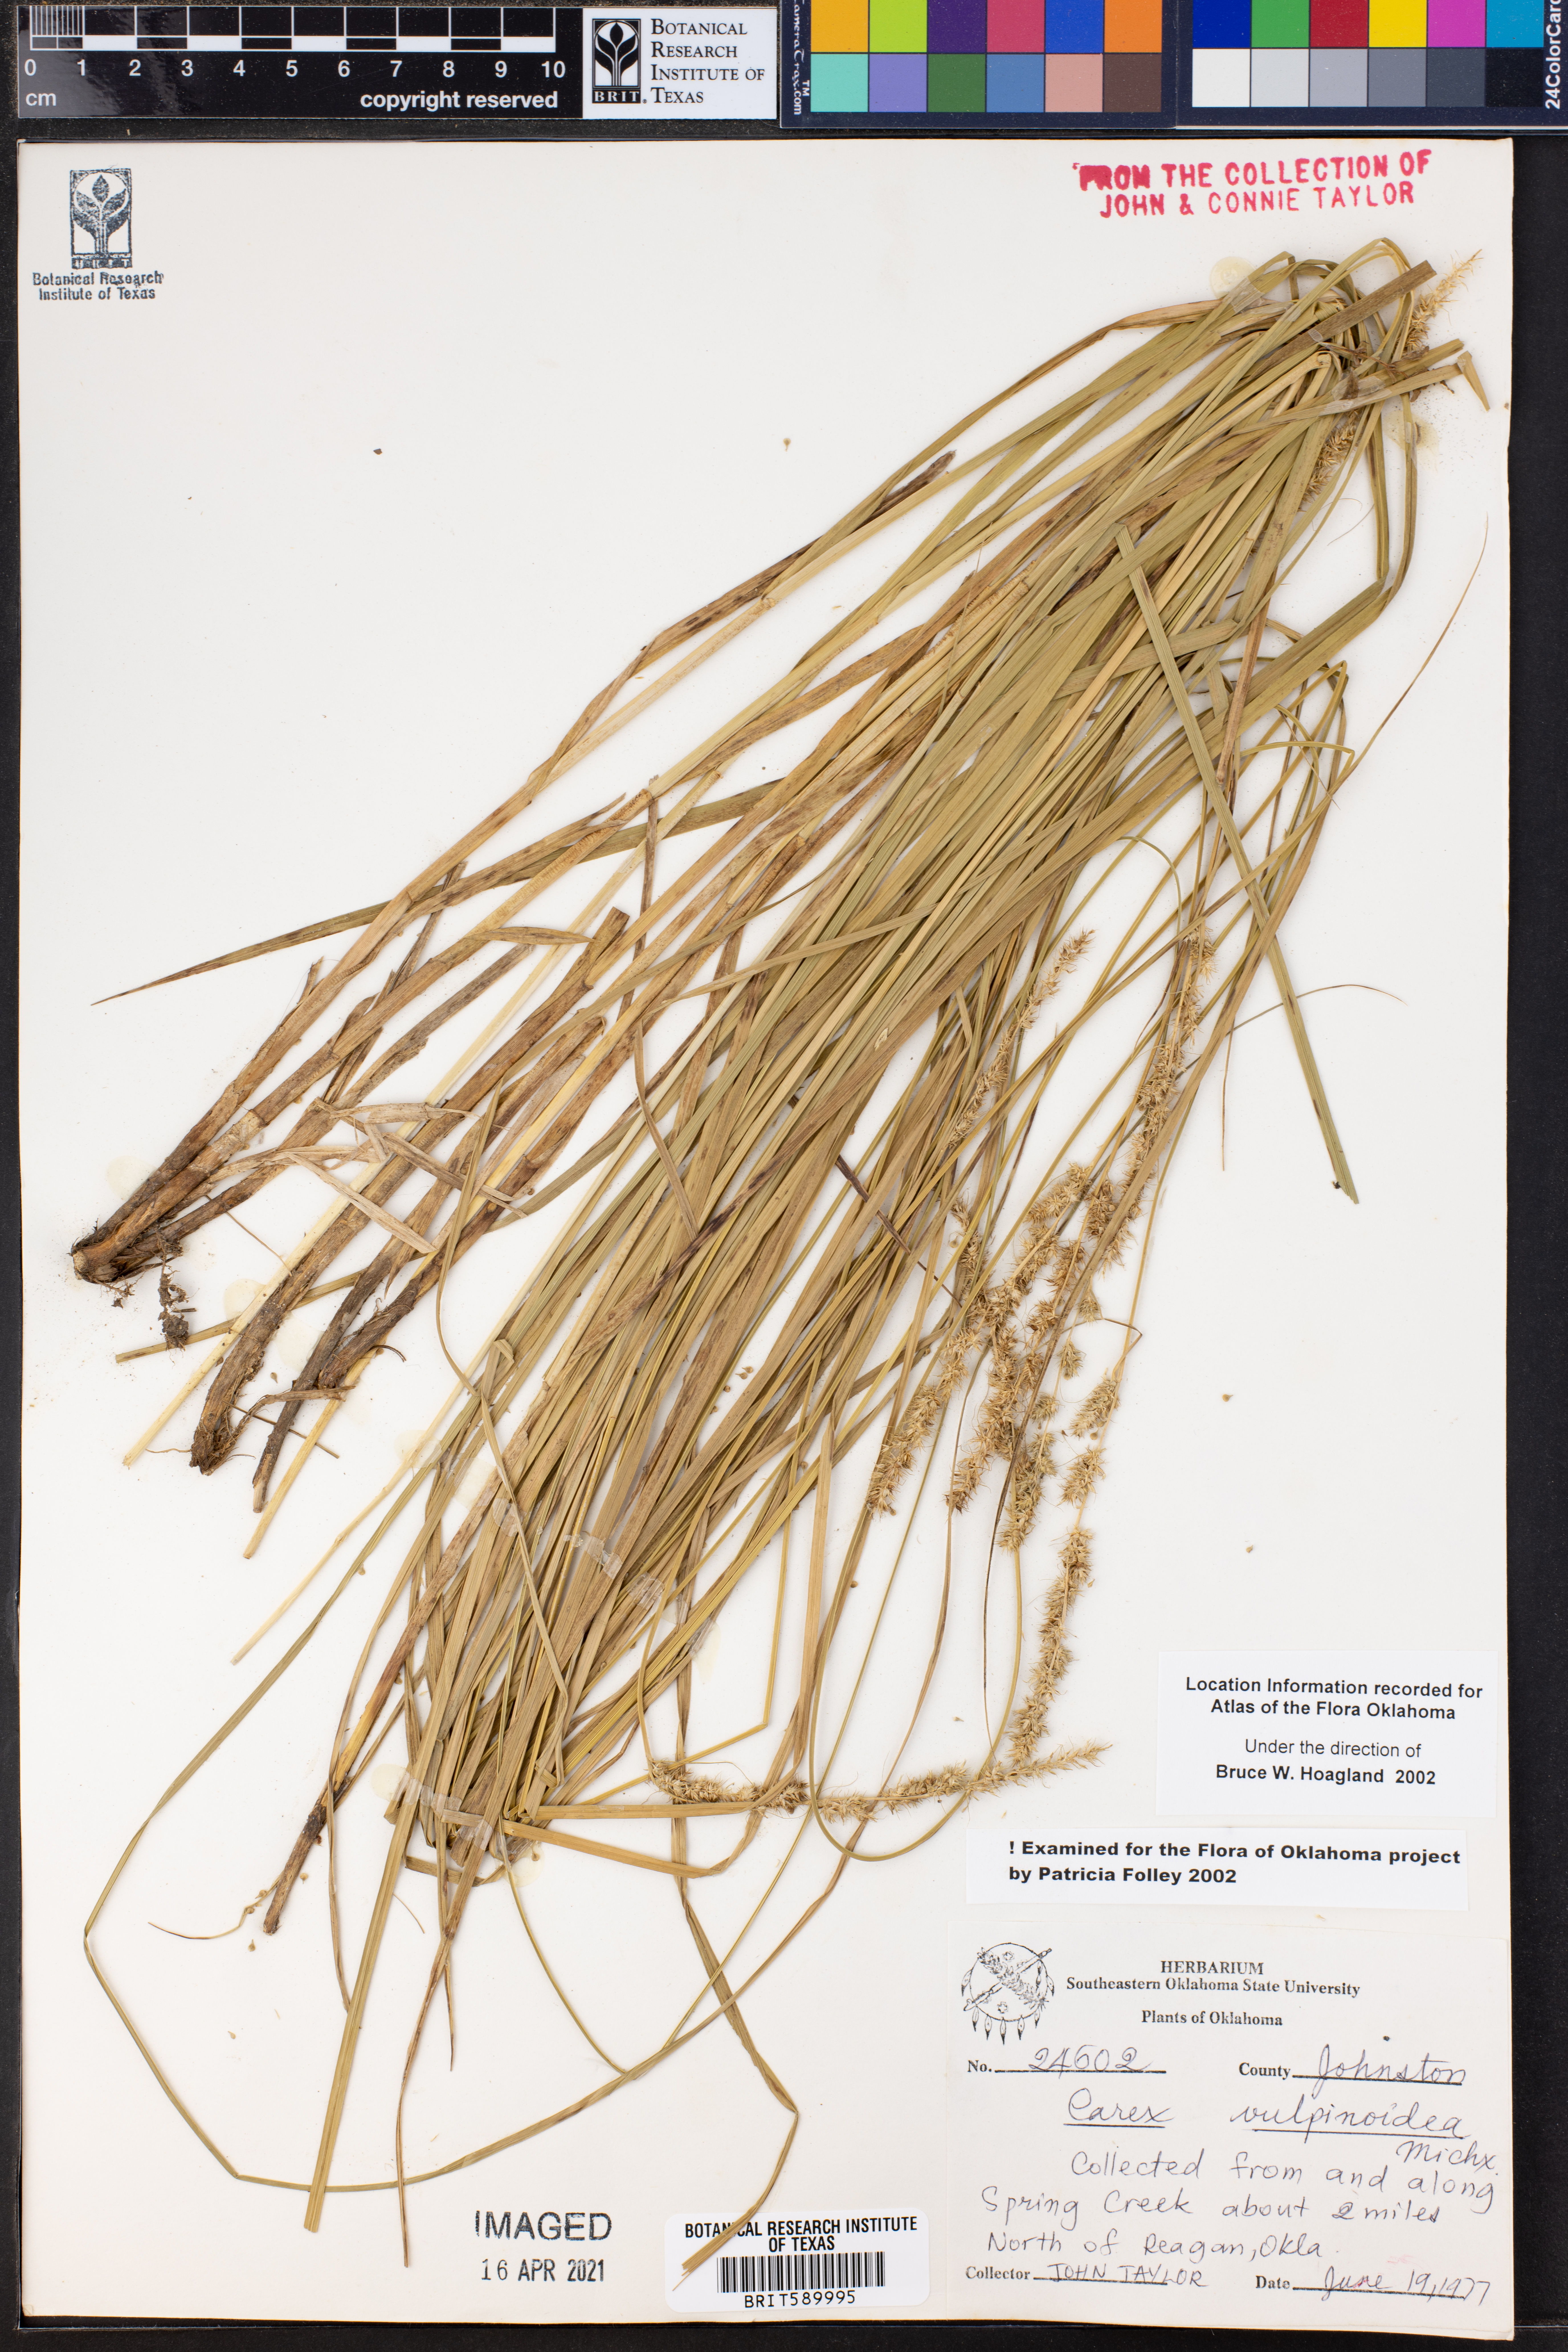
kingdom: Plantae
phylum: Tracheophyta
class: Liliopsida
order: Poales
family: Cyperaceae
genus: Carex
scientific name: Carex vulpinoidea
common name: American fox-sedge
